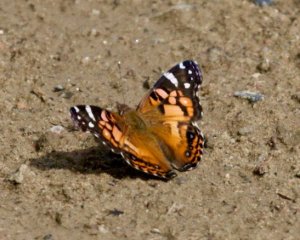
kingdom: Animalia
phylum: Arthropoda
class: Insecta
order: Lepidoptera
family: Nymphalidae
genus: Vanessa
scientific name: Vanessa virginiensis
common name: American Lady
